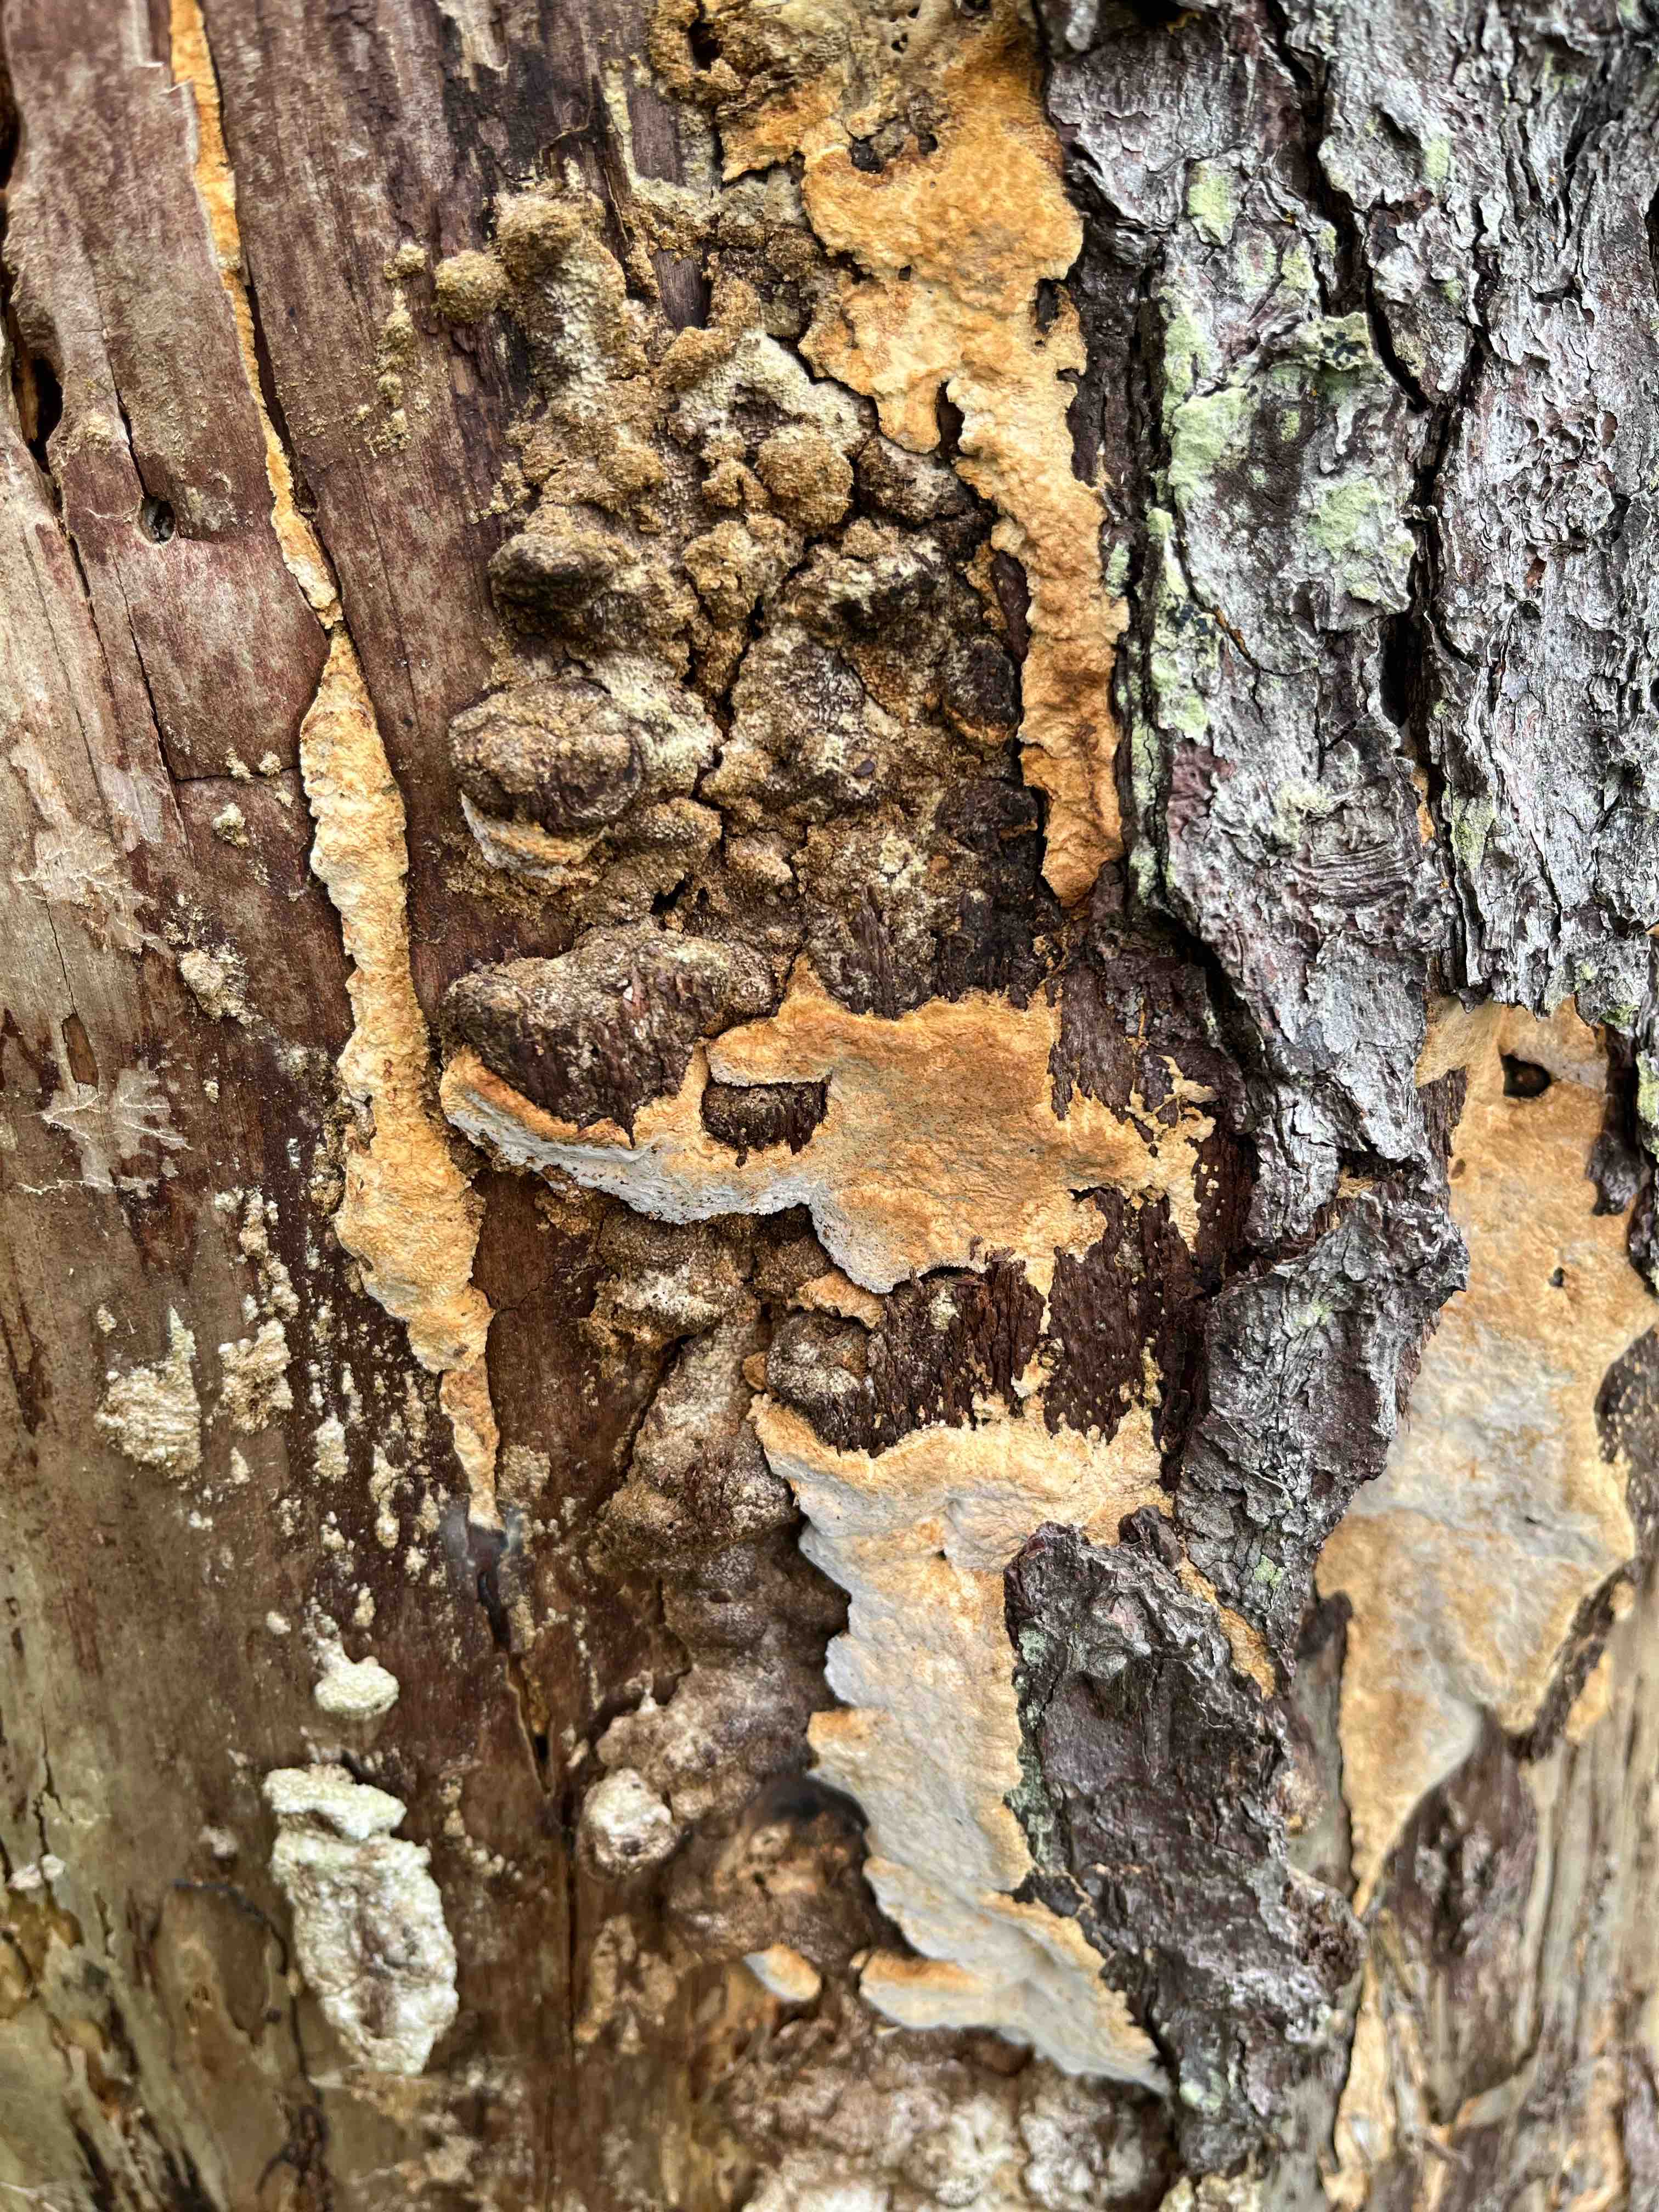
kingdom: Fungi
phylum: Basidiomycota
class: Agaricomycetes
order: Polyporales
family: Fomitopsidaceae
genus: Neoantrodia
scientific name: Neoantrodia serialis
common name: række-sejporesvamp
